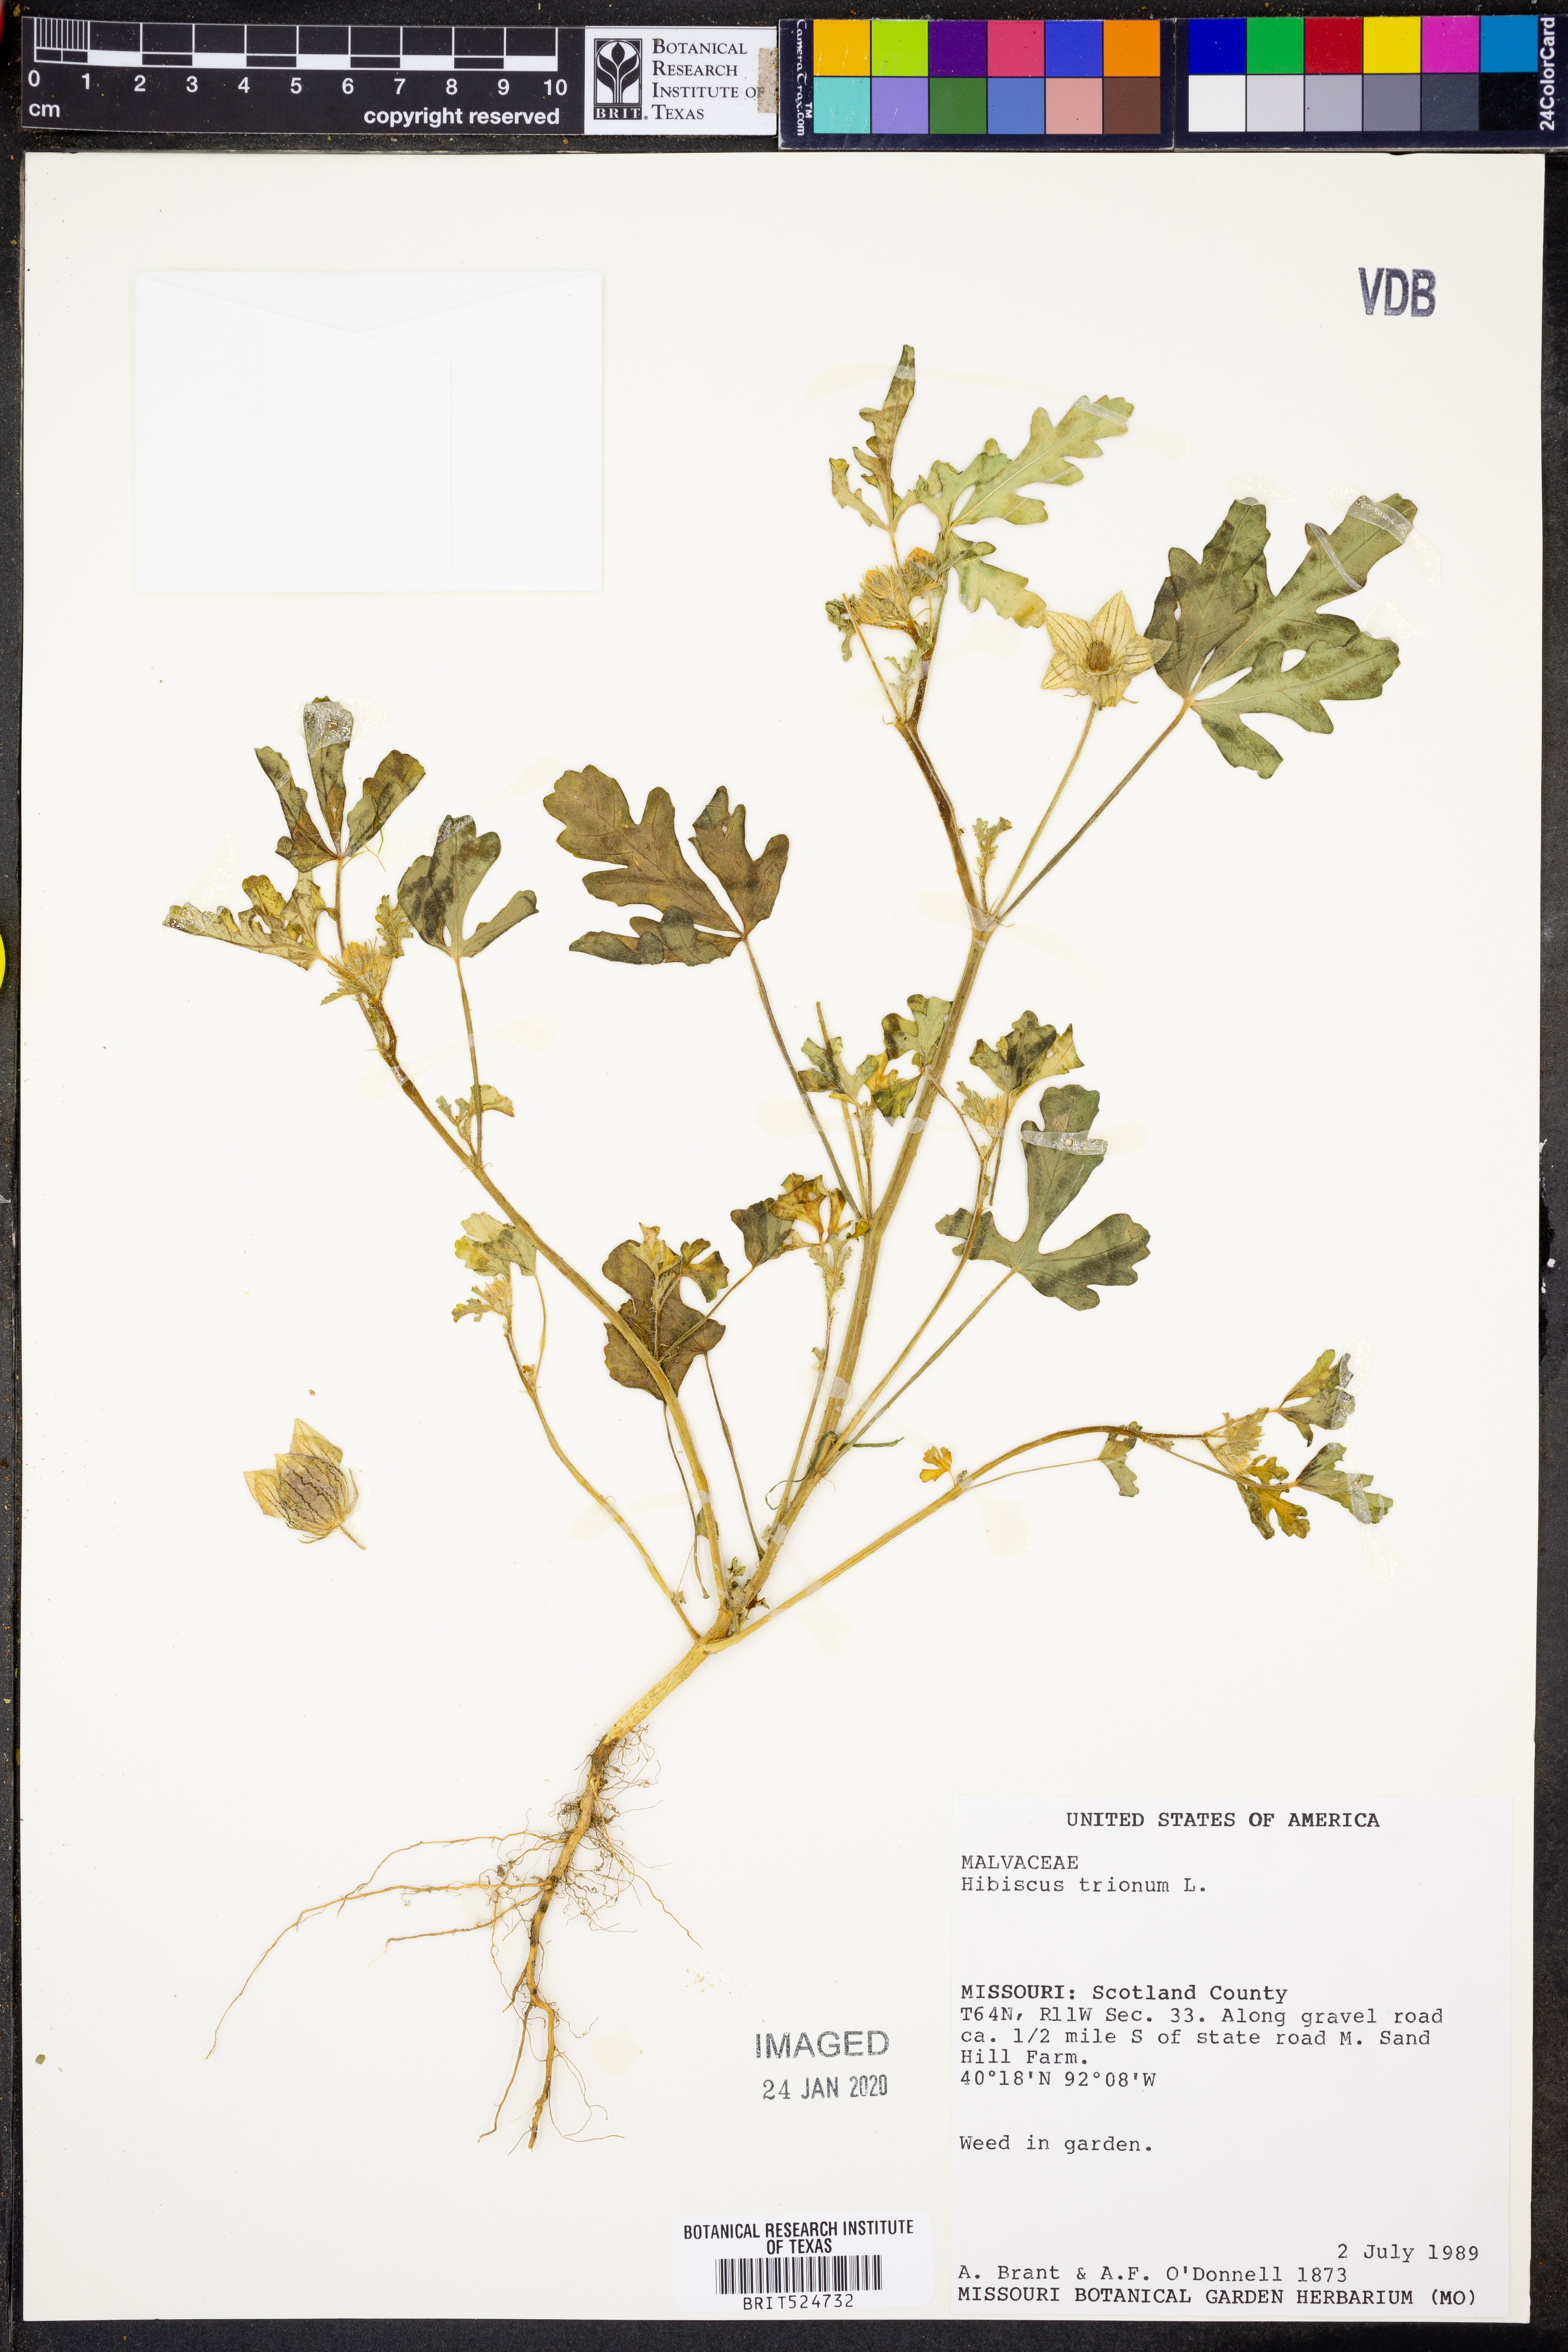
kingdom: Plantae
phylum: Tracheophyta
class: Magnoliopsida
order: Malvales
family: Malvaceae
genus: Hibiscus
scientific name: Hibiscus trionum
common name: Bladder ketmia
